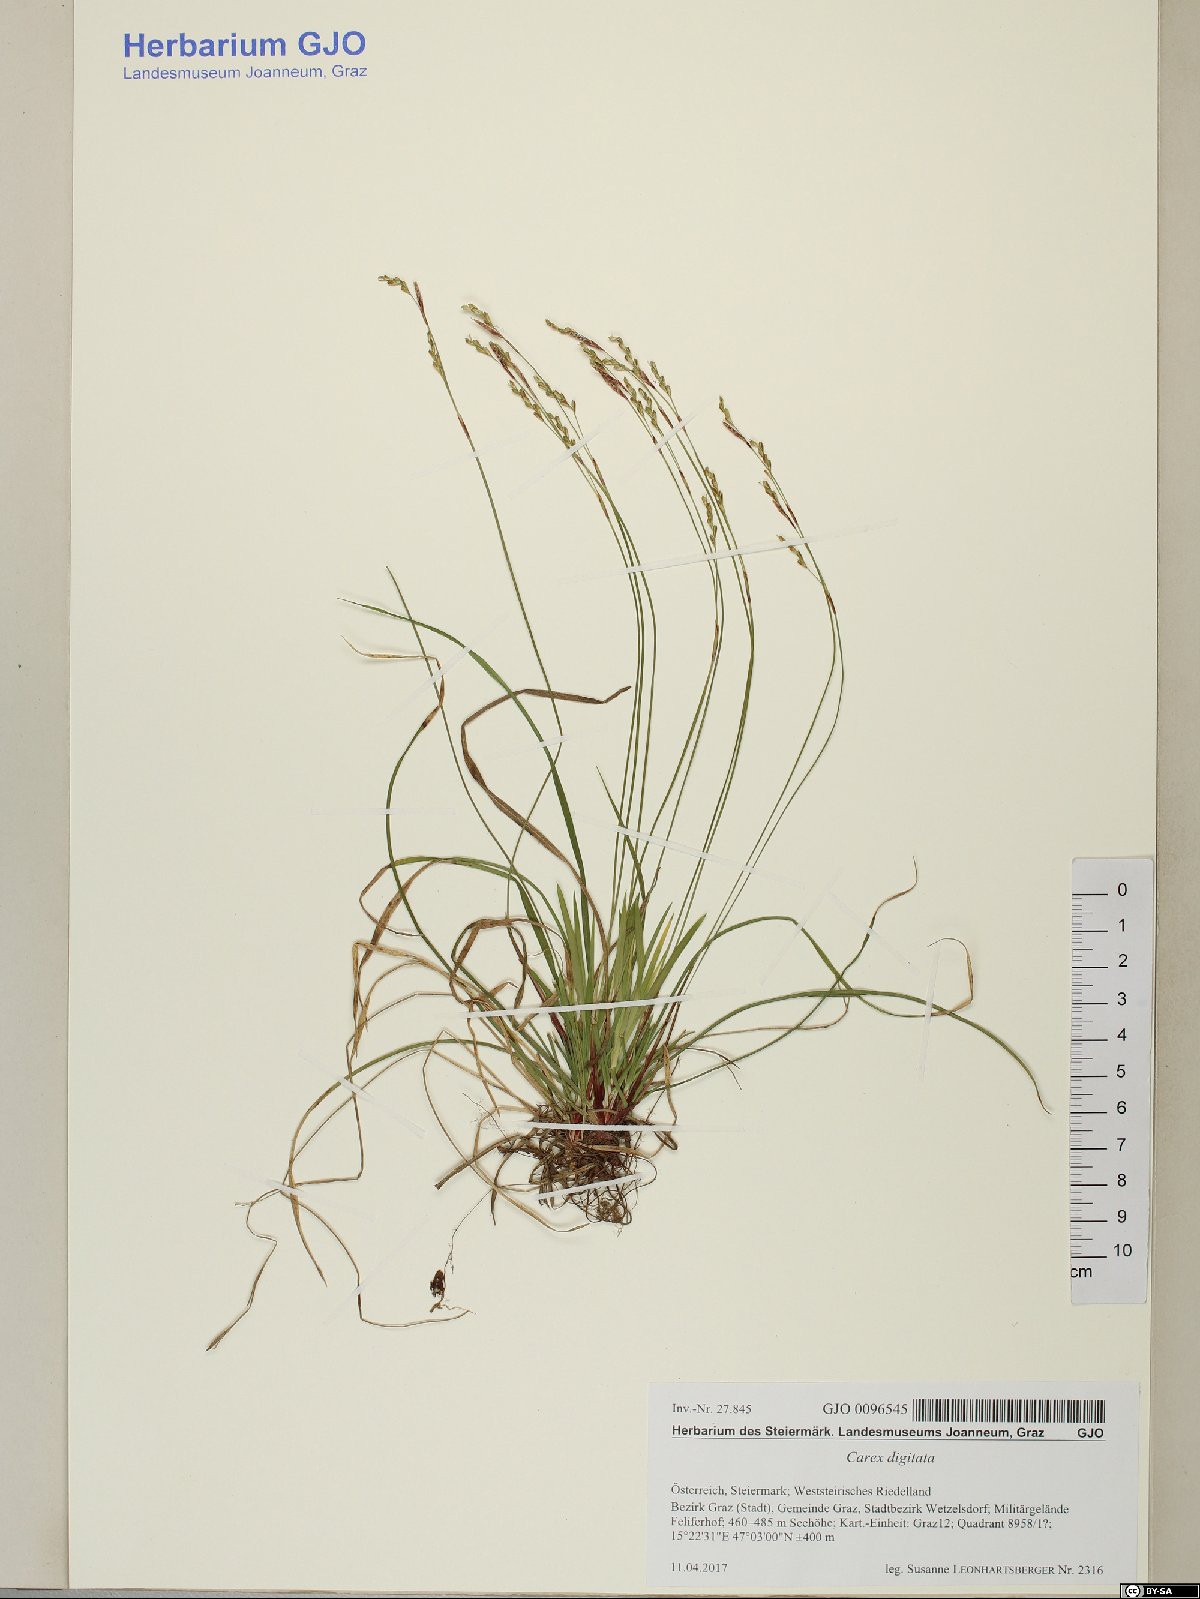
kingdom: Plantae
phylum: Tracheophyta
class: Liliopsida
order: Poales
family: Cyperaceae
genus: Carex
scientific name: Carex digitata
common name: Fingered sedge
